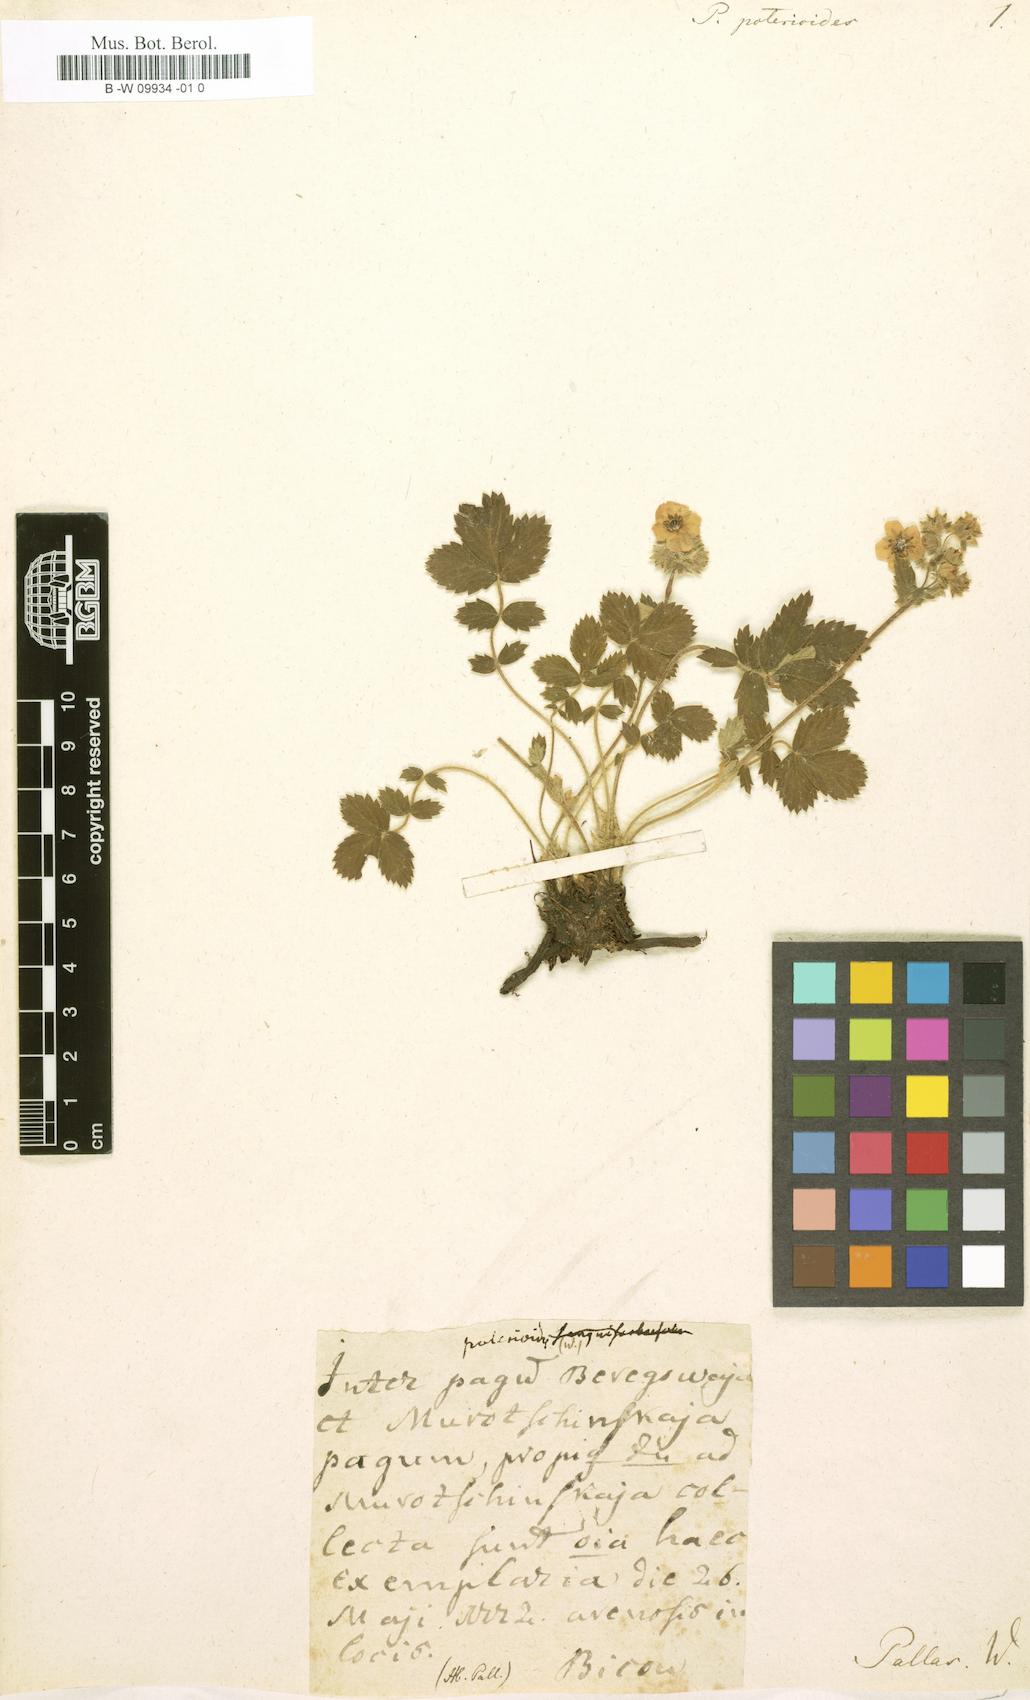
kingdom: Plantae
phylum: Tracheophyta
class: Magnoliopsida
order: Rosales
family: Rosaceae
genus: Potentilla
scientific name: Potentilla poterioides
